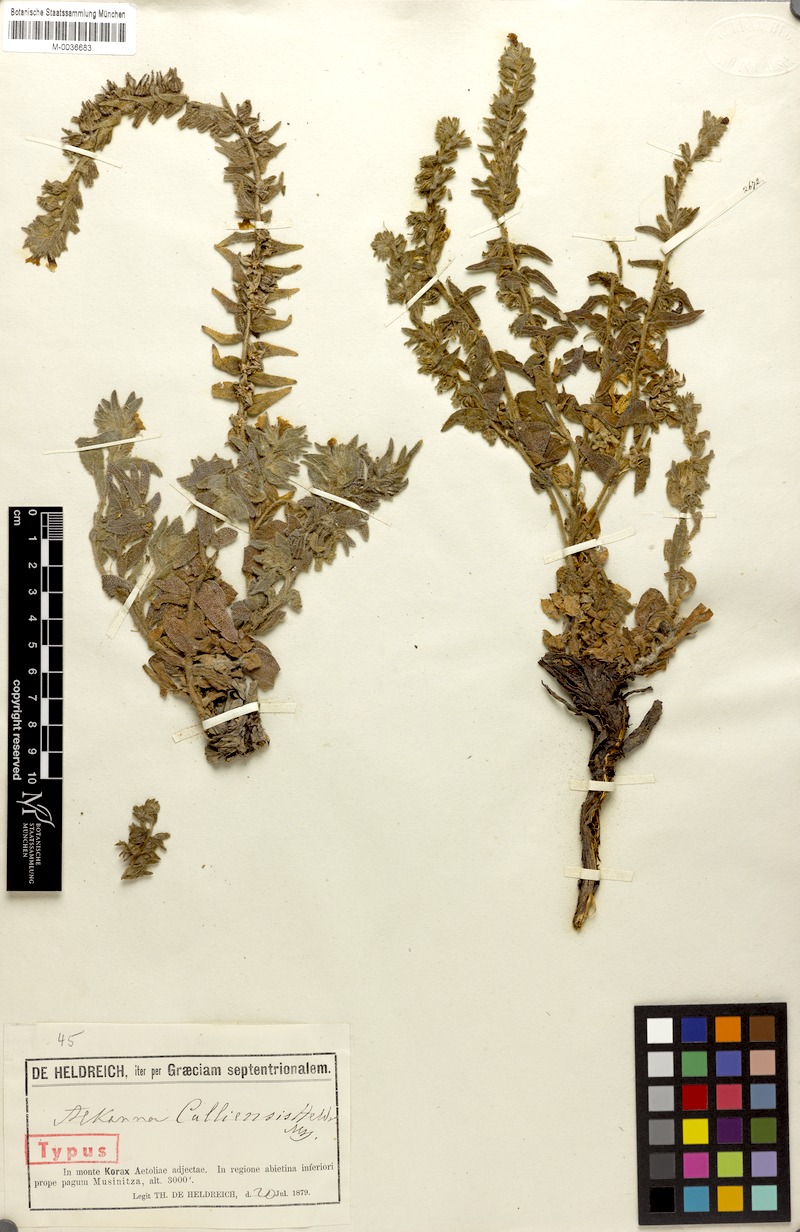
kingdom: Plantae
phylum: Tracheophyta
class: Magnoliopsida
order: Boraginales
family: Boraginaceae
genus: Alkanna
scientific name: Alkanna calliensis
